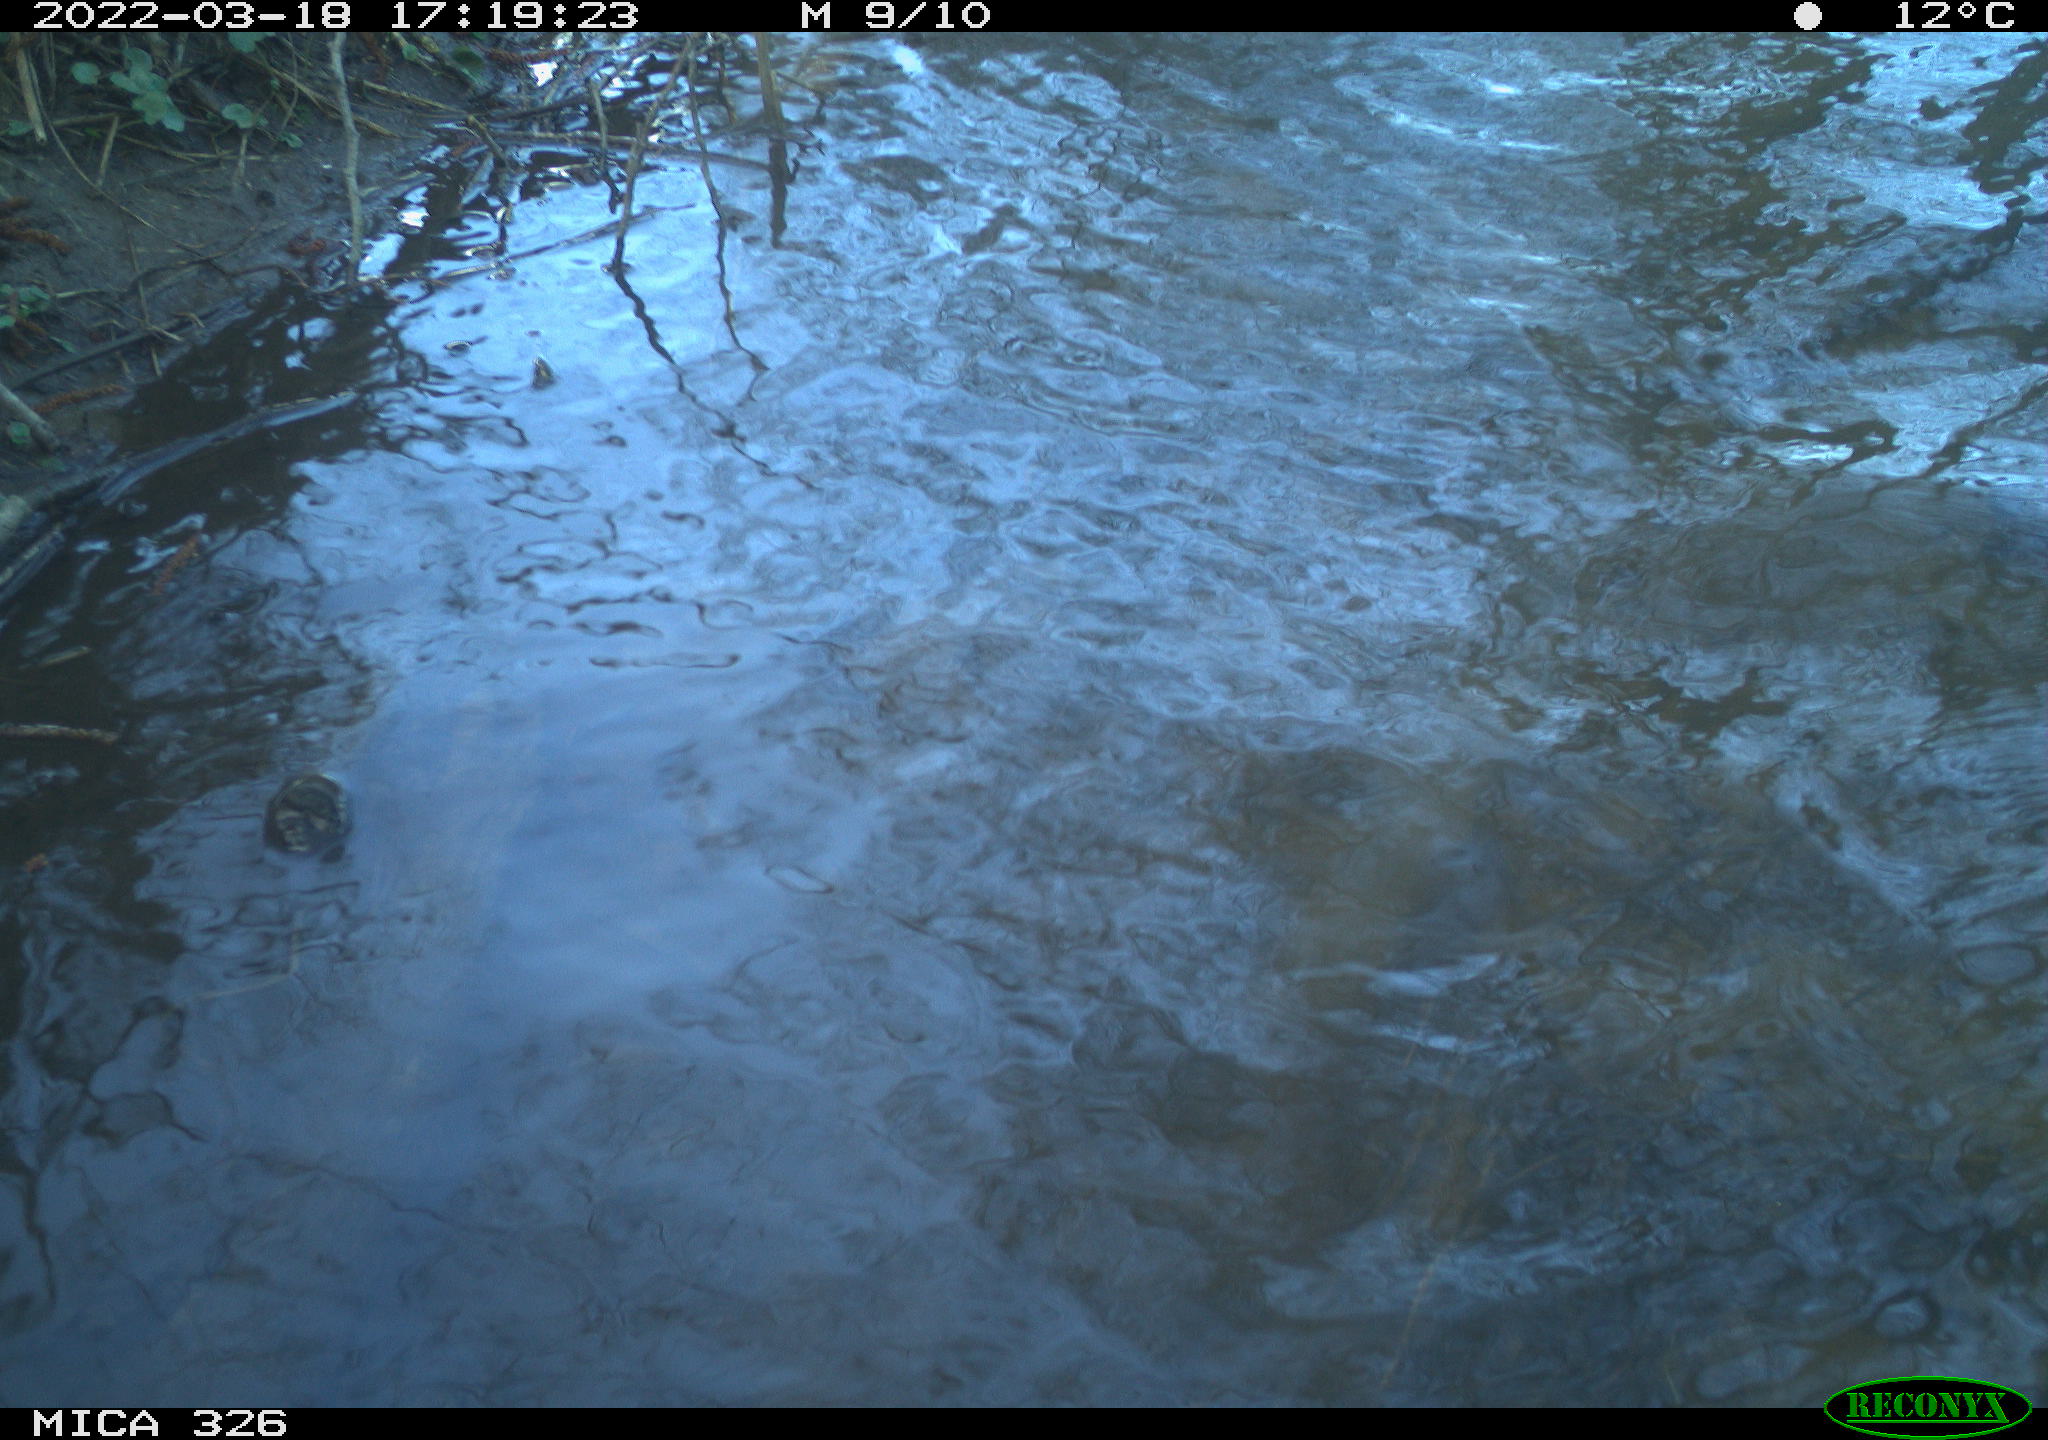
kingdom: Animalia
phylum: Chordata
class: Mammalia
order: Rodentia
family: Cricetidae
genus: Ondatra
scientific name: Ondatra zibethicus
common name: Muskrat
